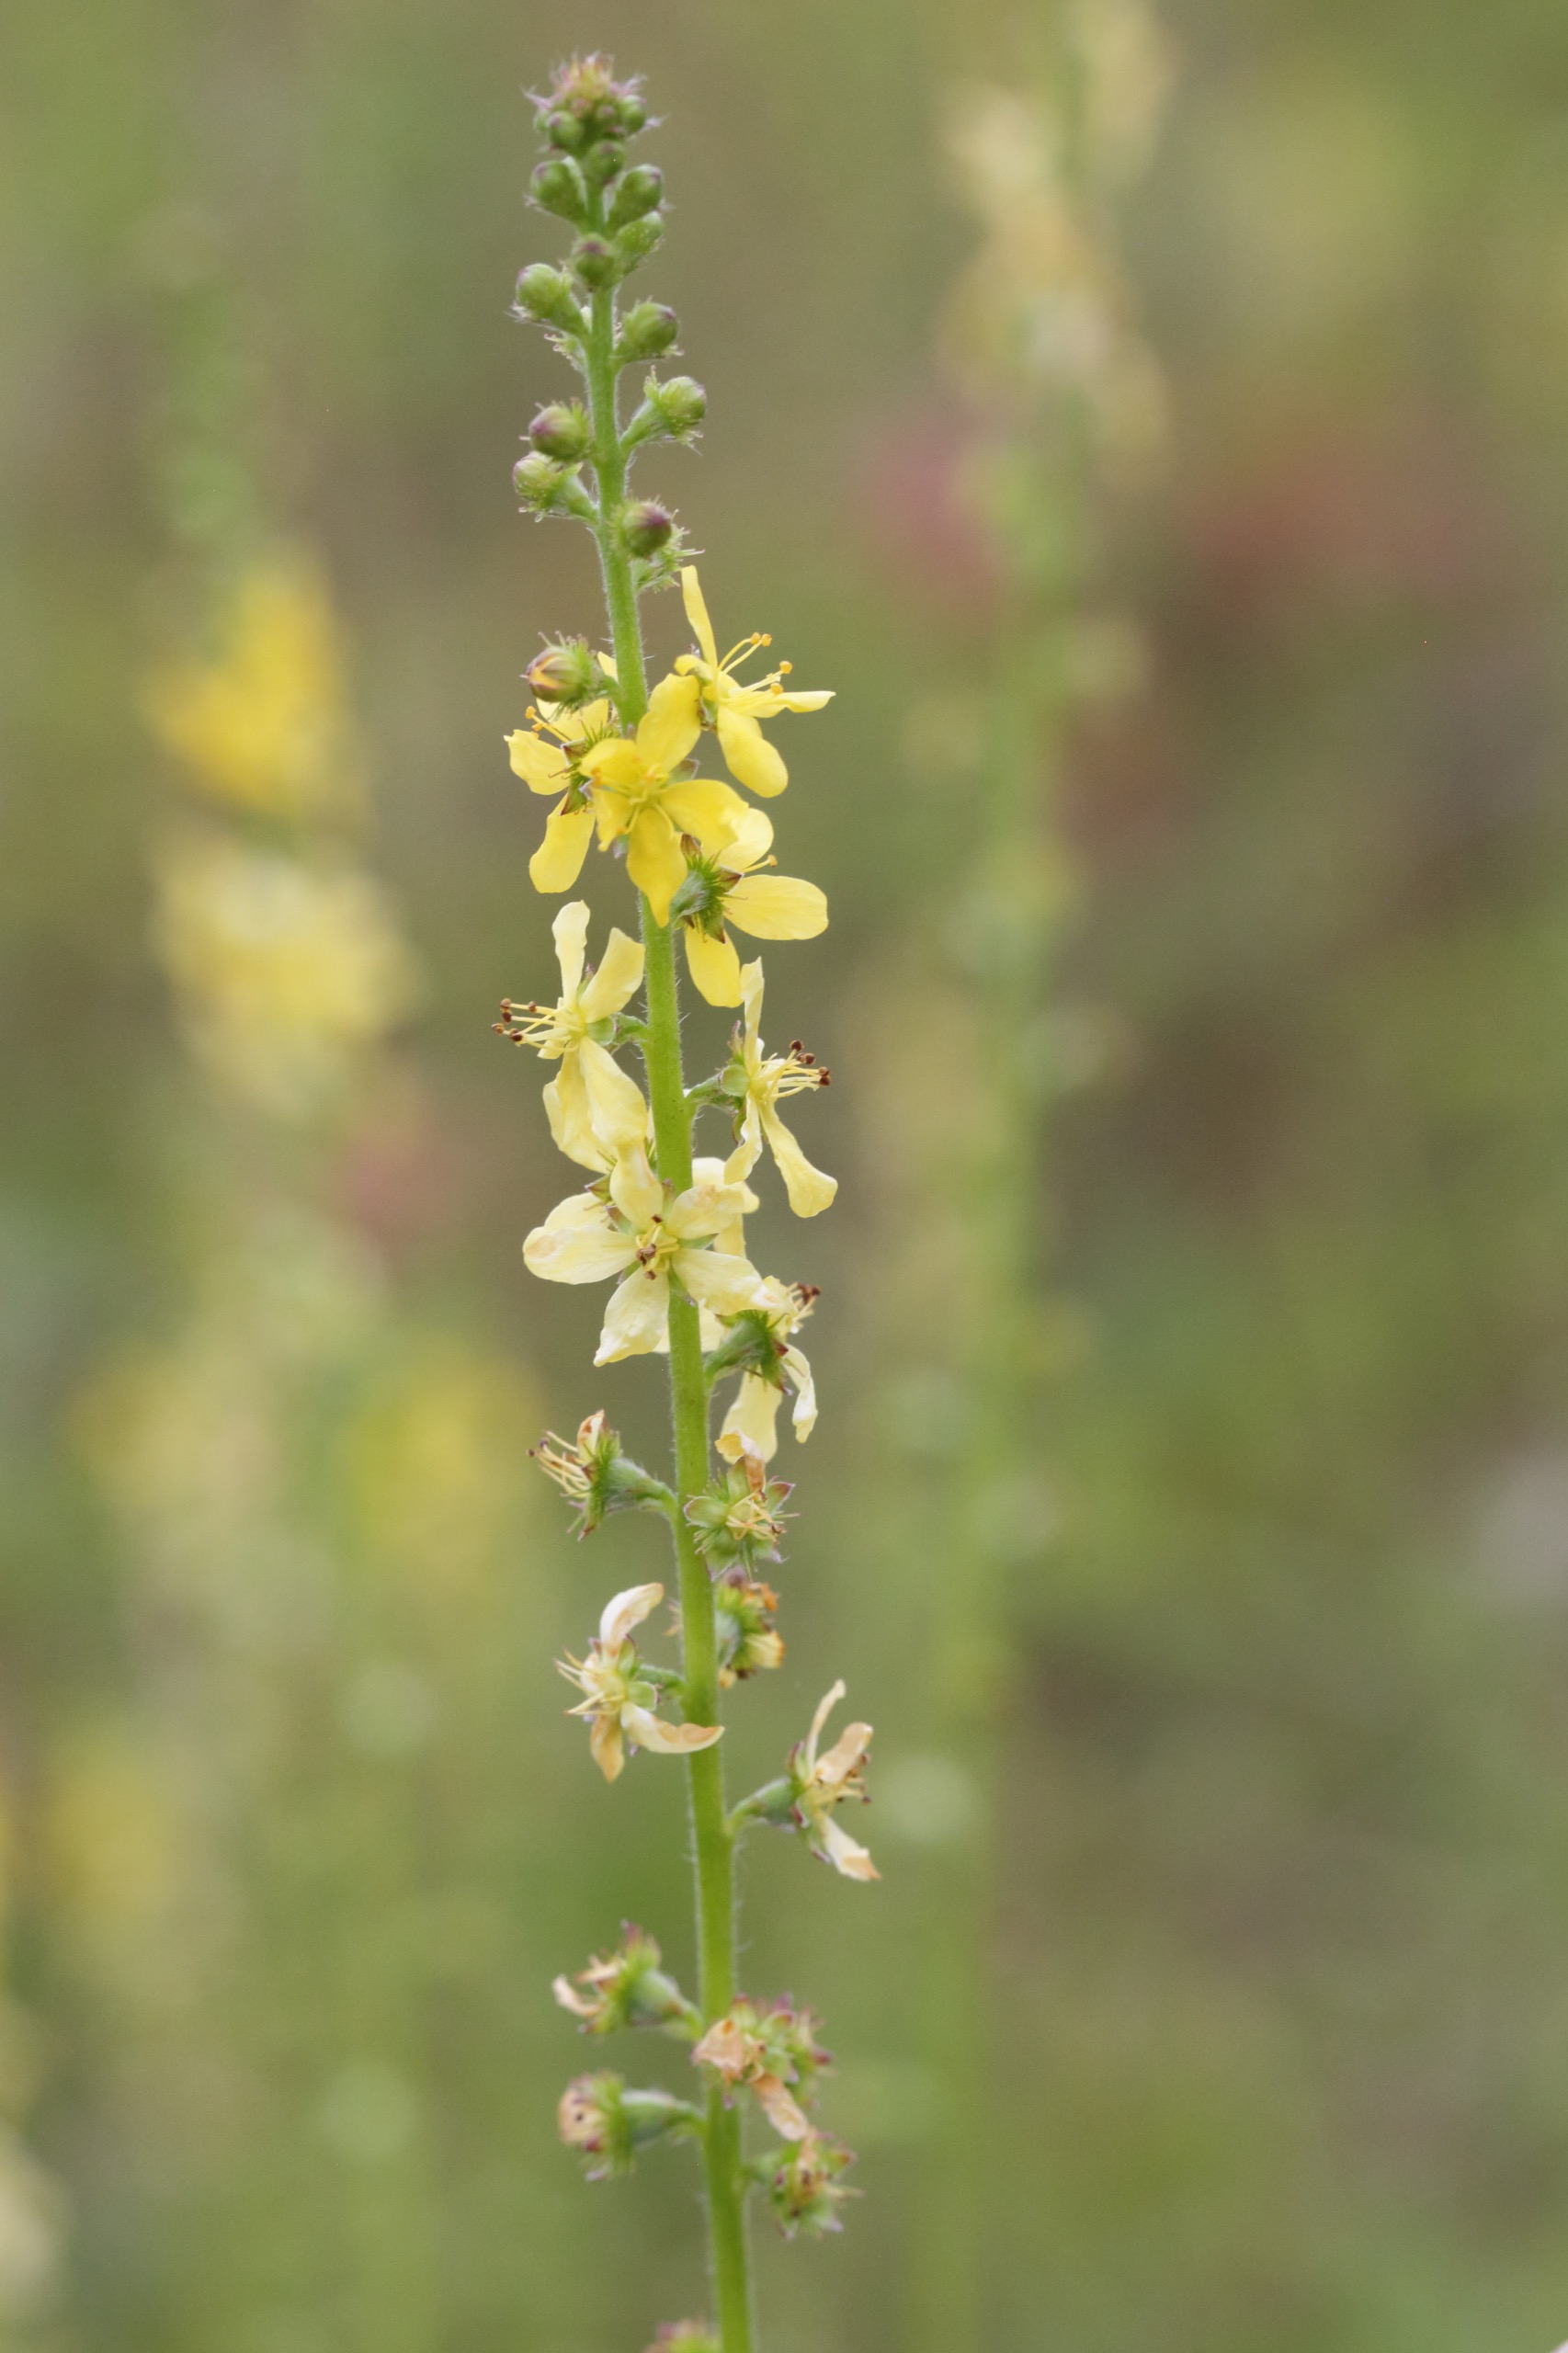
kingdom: Plantae
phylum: Tracheophyta
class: Magnoliopsida
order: Rosales
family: Rosaceae
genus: Agrimonia
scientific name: Agrimonia eupatoria
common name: Almindelig agermåne
